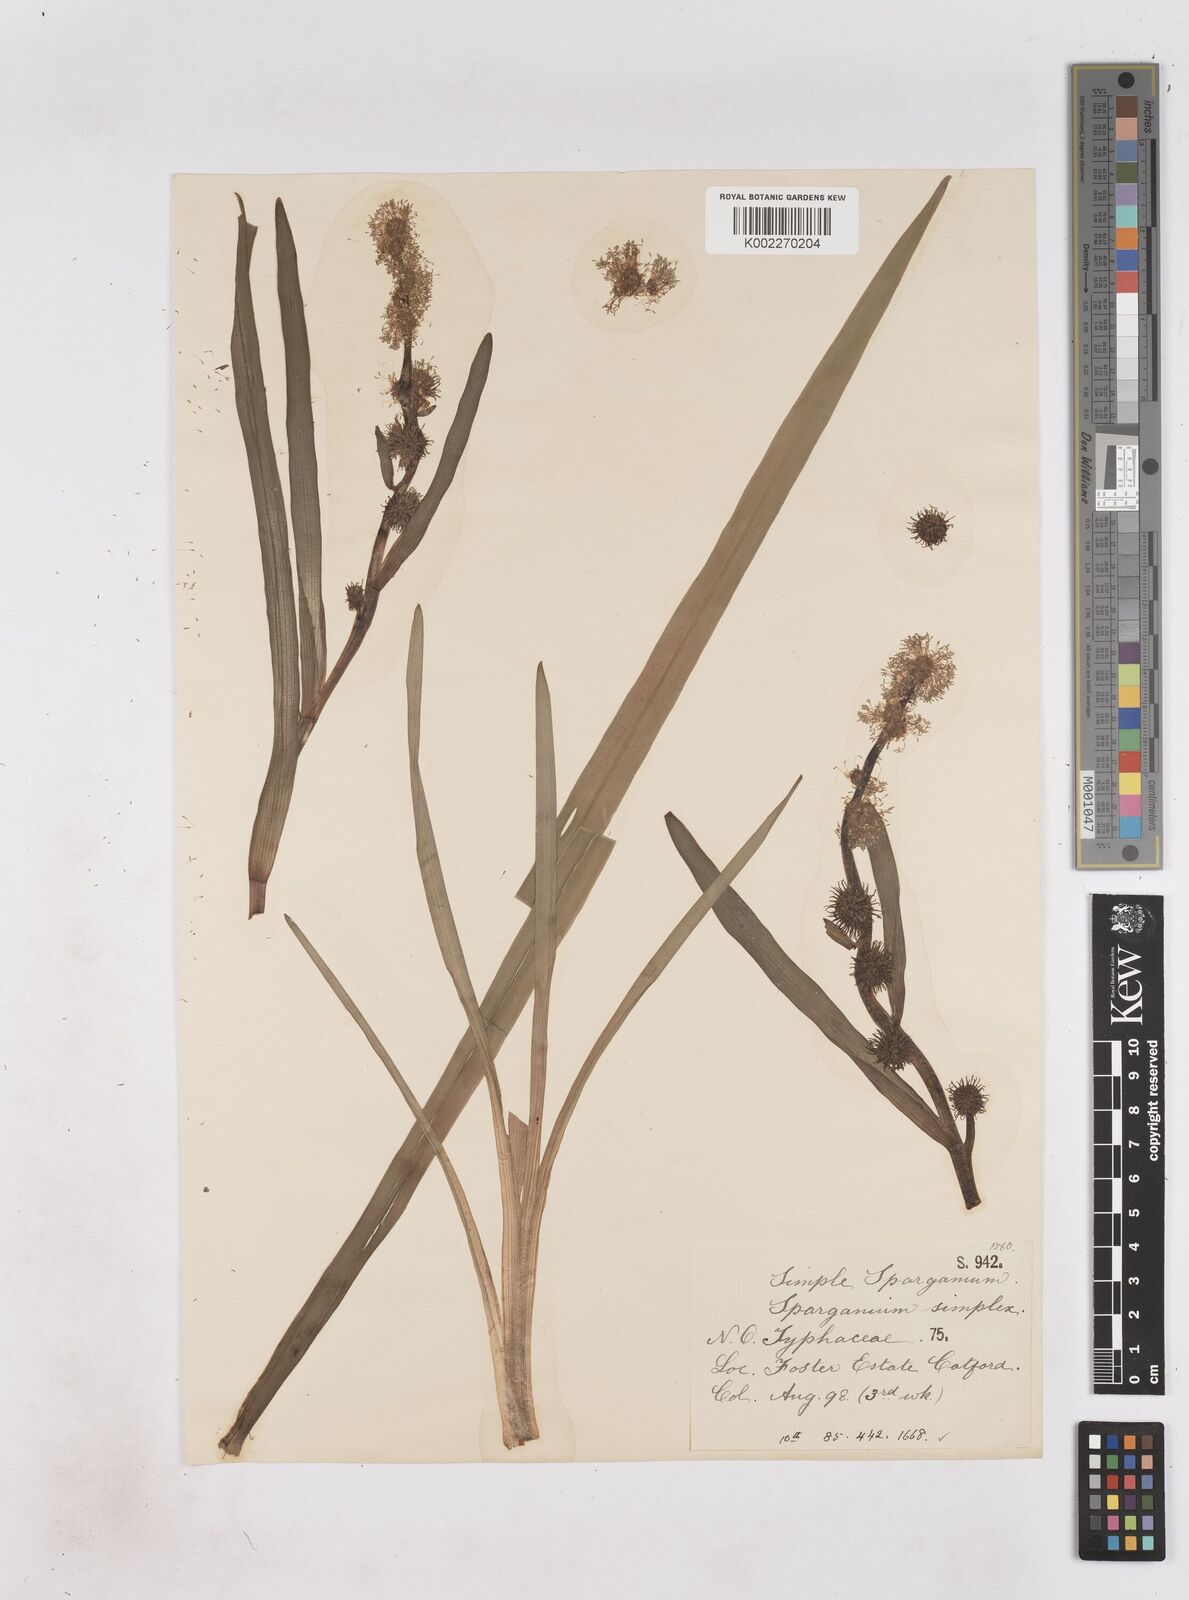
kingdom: Plantae
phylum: Tracheophyta
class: Liliopsida
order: Poales
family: Typhaceae
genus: Sparganium
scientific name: Sparganium emersum
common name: Unbranched bur-reed
